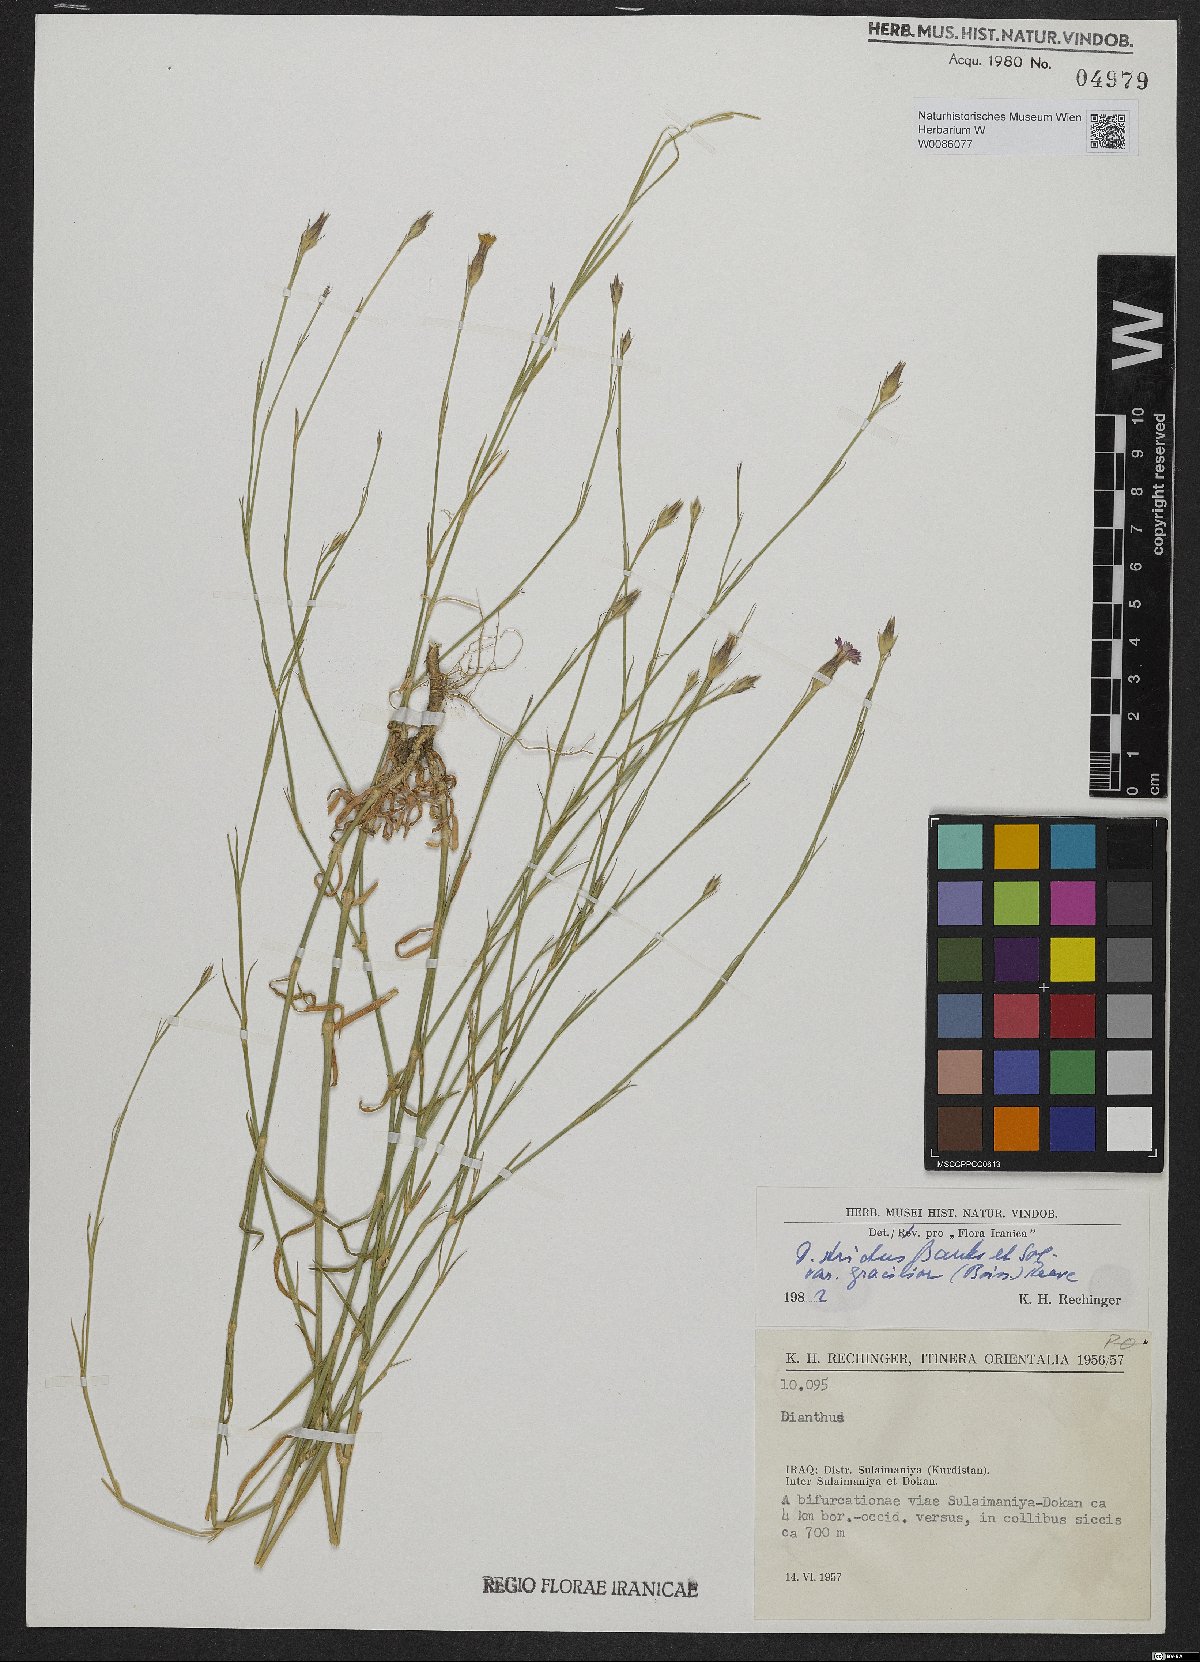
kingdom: Plantae
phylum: Tracheophyta
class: Magnoliopsida
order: Caryophyllales
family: Caryophyllaceae
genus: Dianthus
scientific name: Dianthus strictus
